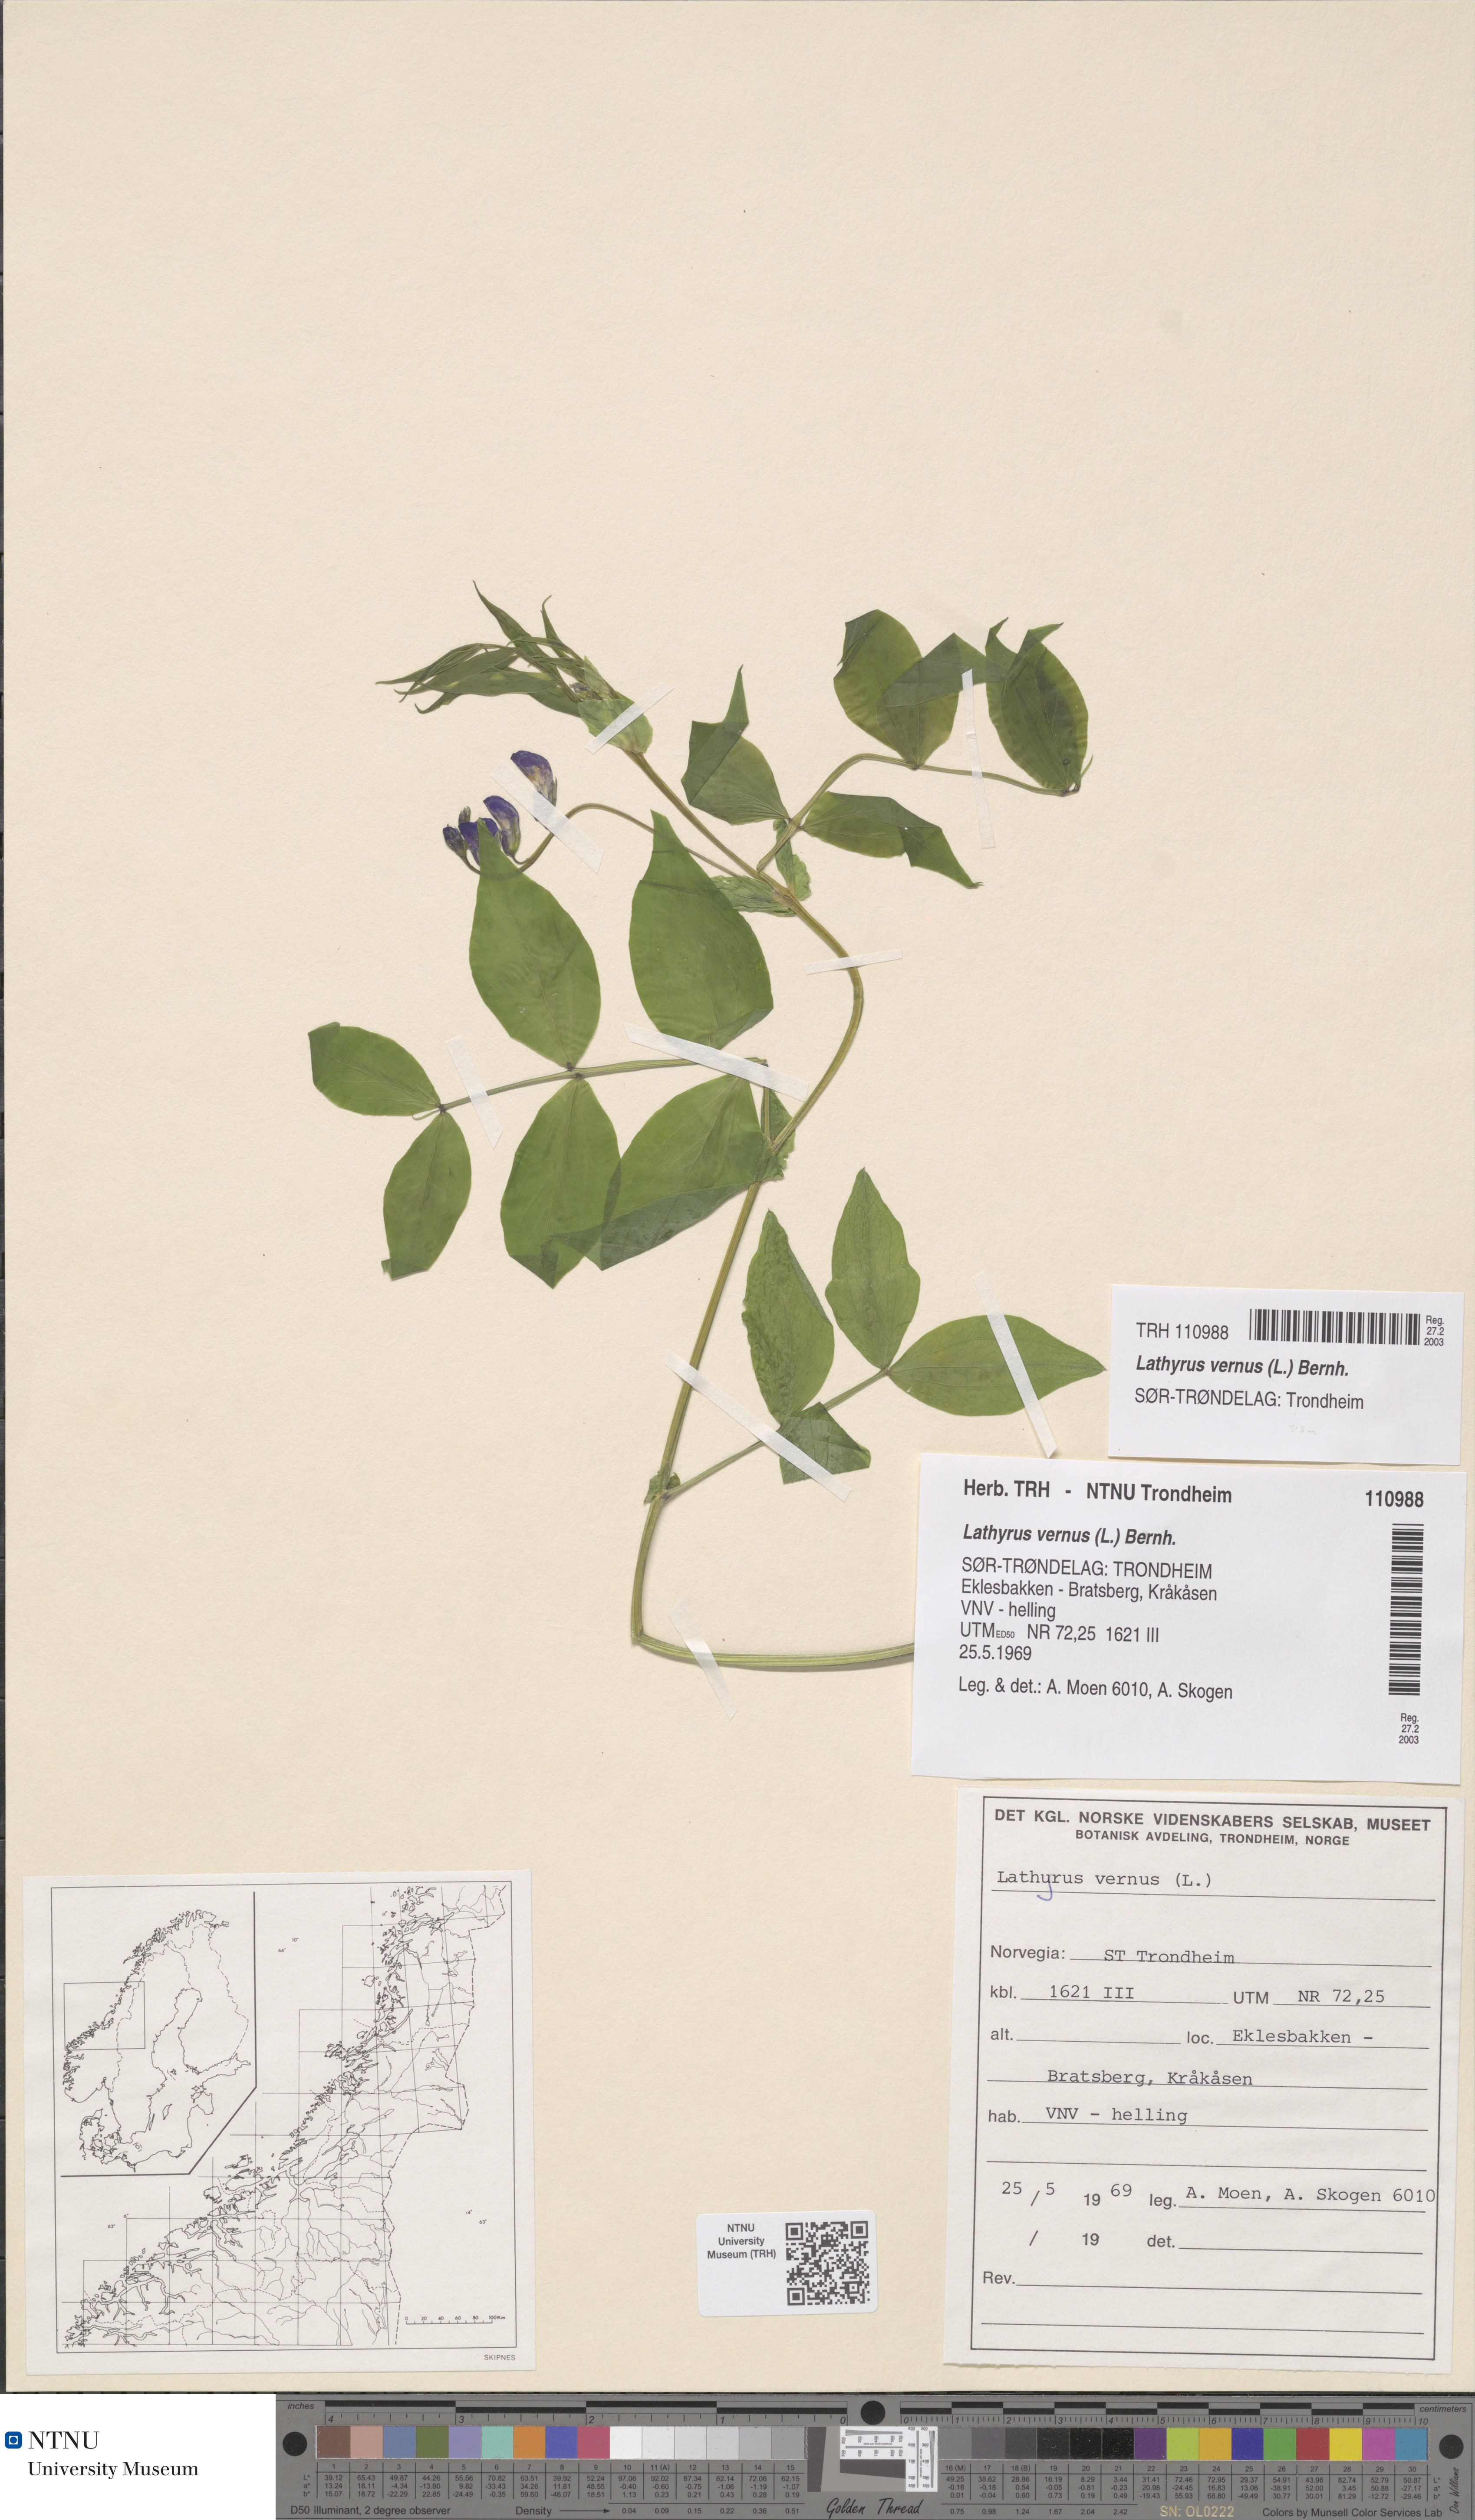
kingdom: Plantae
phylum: Tracheophyta
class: Magnoliopsida
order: Fabales
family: Fabaceae
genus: Lathyrus
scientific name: Lathyrus vernus
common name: Spring pea
